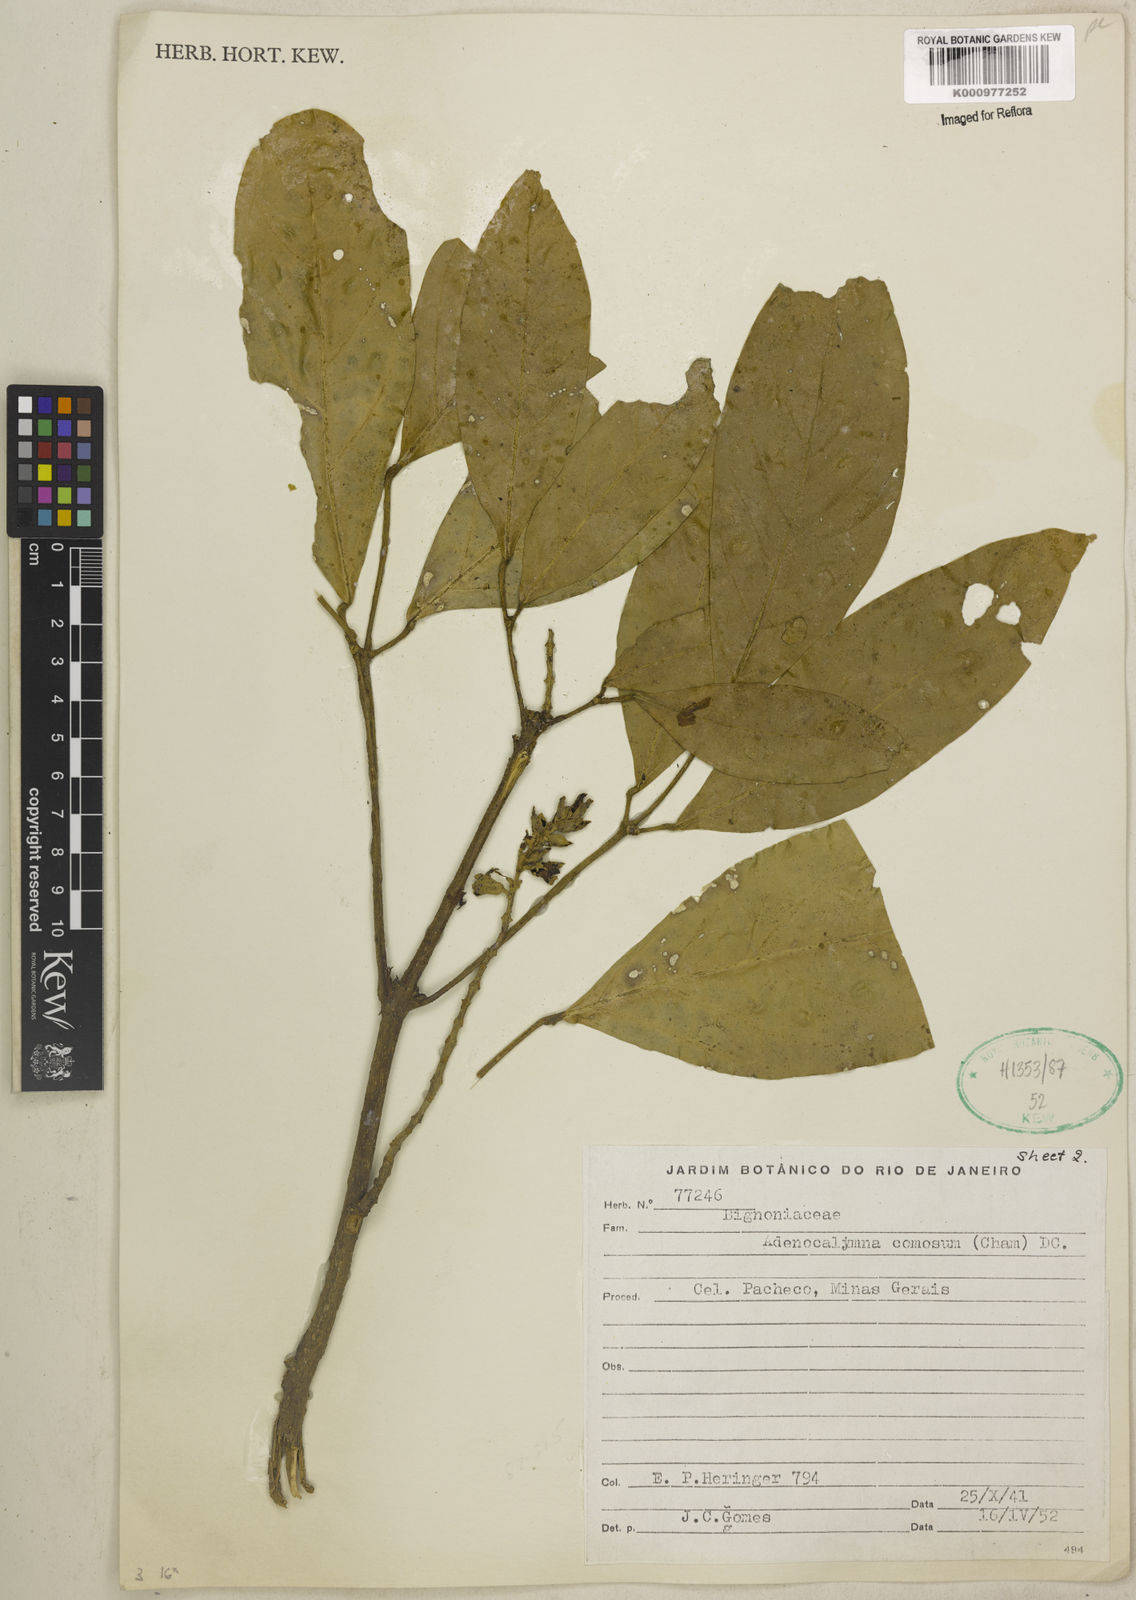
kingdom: Plantae
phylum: Tracheophyta
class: Magnoliopsida
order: Lamiales
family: Bignoniaceae
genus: Adenocalymma
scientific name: Adenocalymma acutissimum
